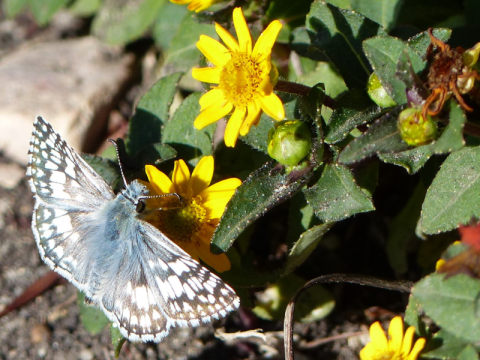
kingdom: Animalia
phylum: Arthropoda
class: Insecta
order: Lepidoptera
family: Hesperiidae
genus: Pyrgus
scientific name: Pyrgus communis
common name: Common Checkered-Skipper
